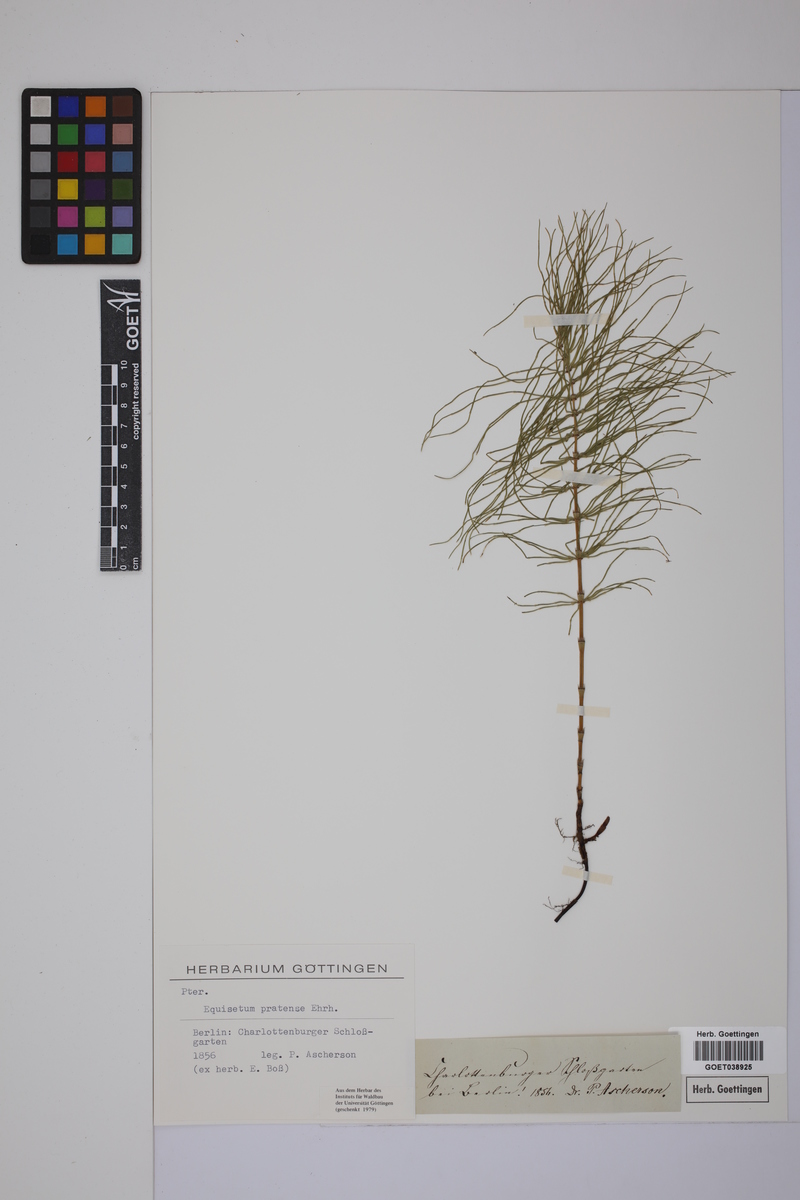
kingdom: Plantae
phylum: Tracheophyta
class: Polypodiopsida
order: Equisetales
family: Equisetaceae
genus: Equisetum
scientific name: Equisetum pratense
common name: Meadow horsetail
